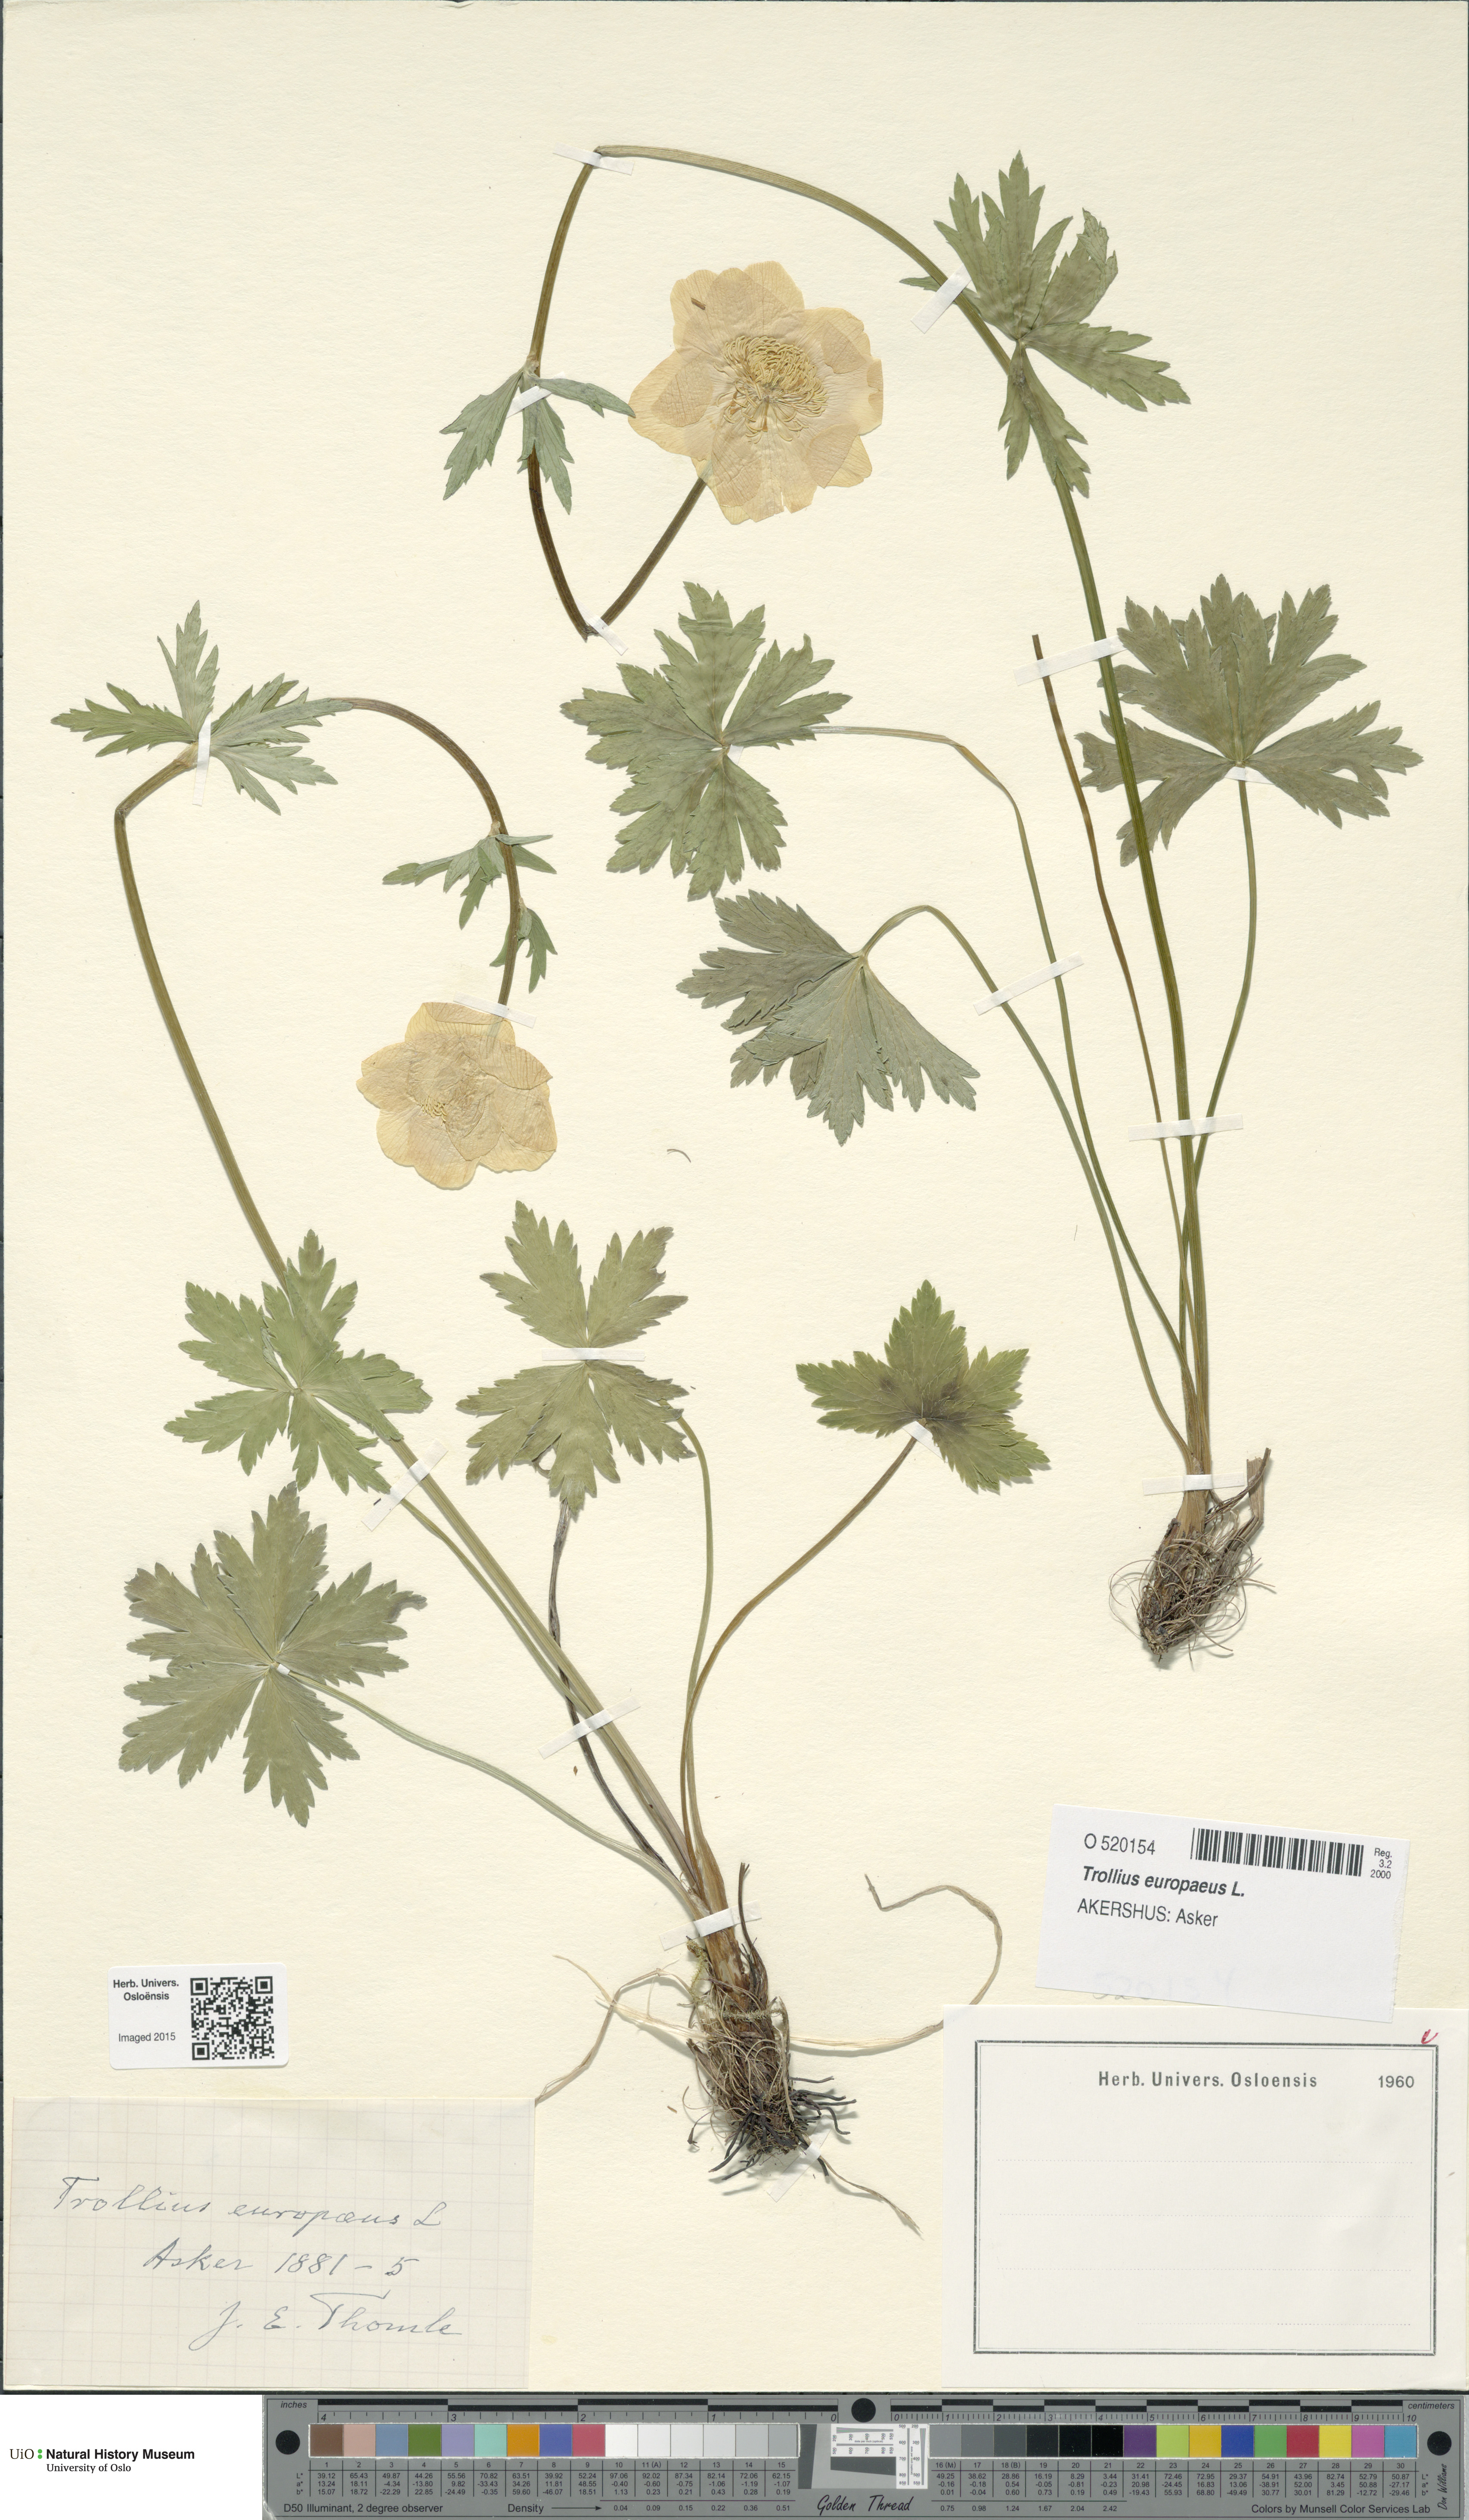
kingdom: Plantae
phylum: Tracheophyta
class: Magnoliopsida
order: Ranunculales
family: Ranunculaceae
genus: Trollius
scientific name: Trollius europaeus
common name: European globeflower
